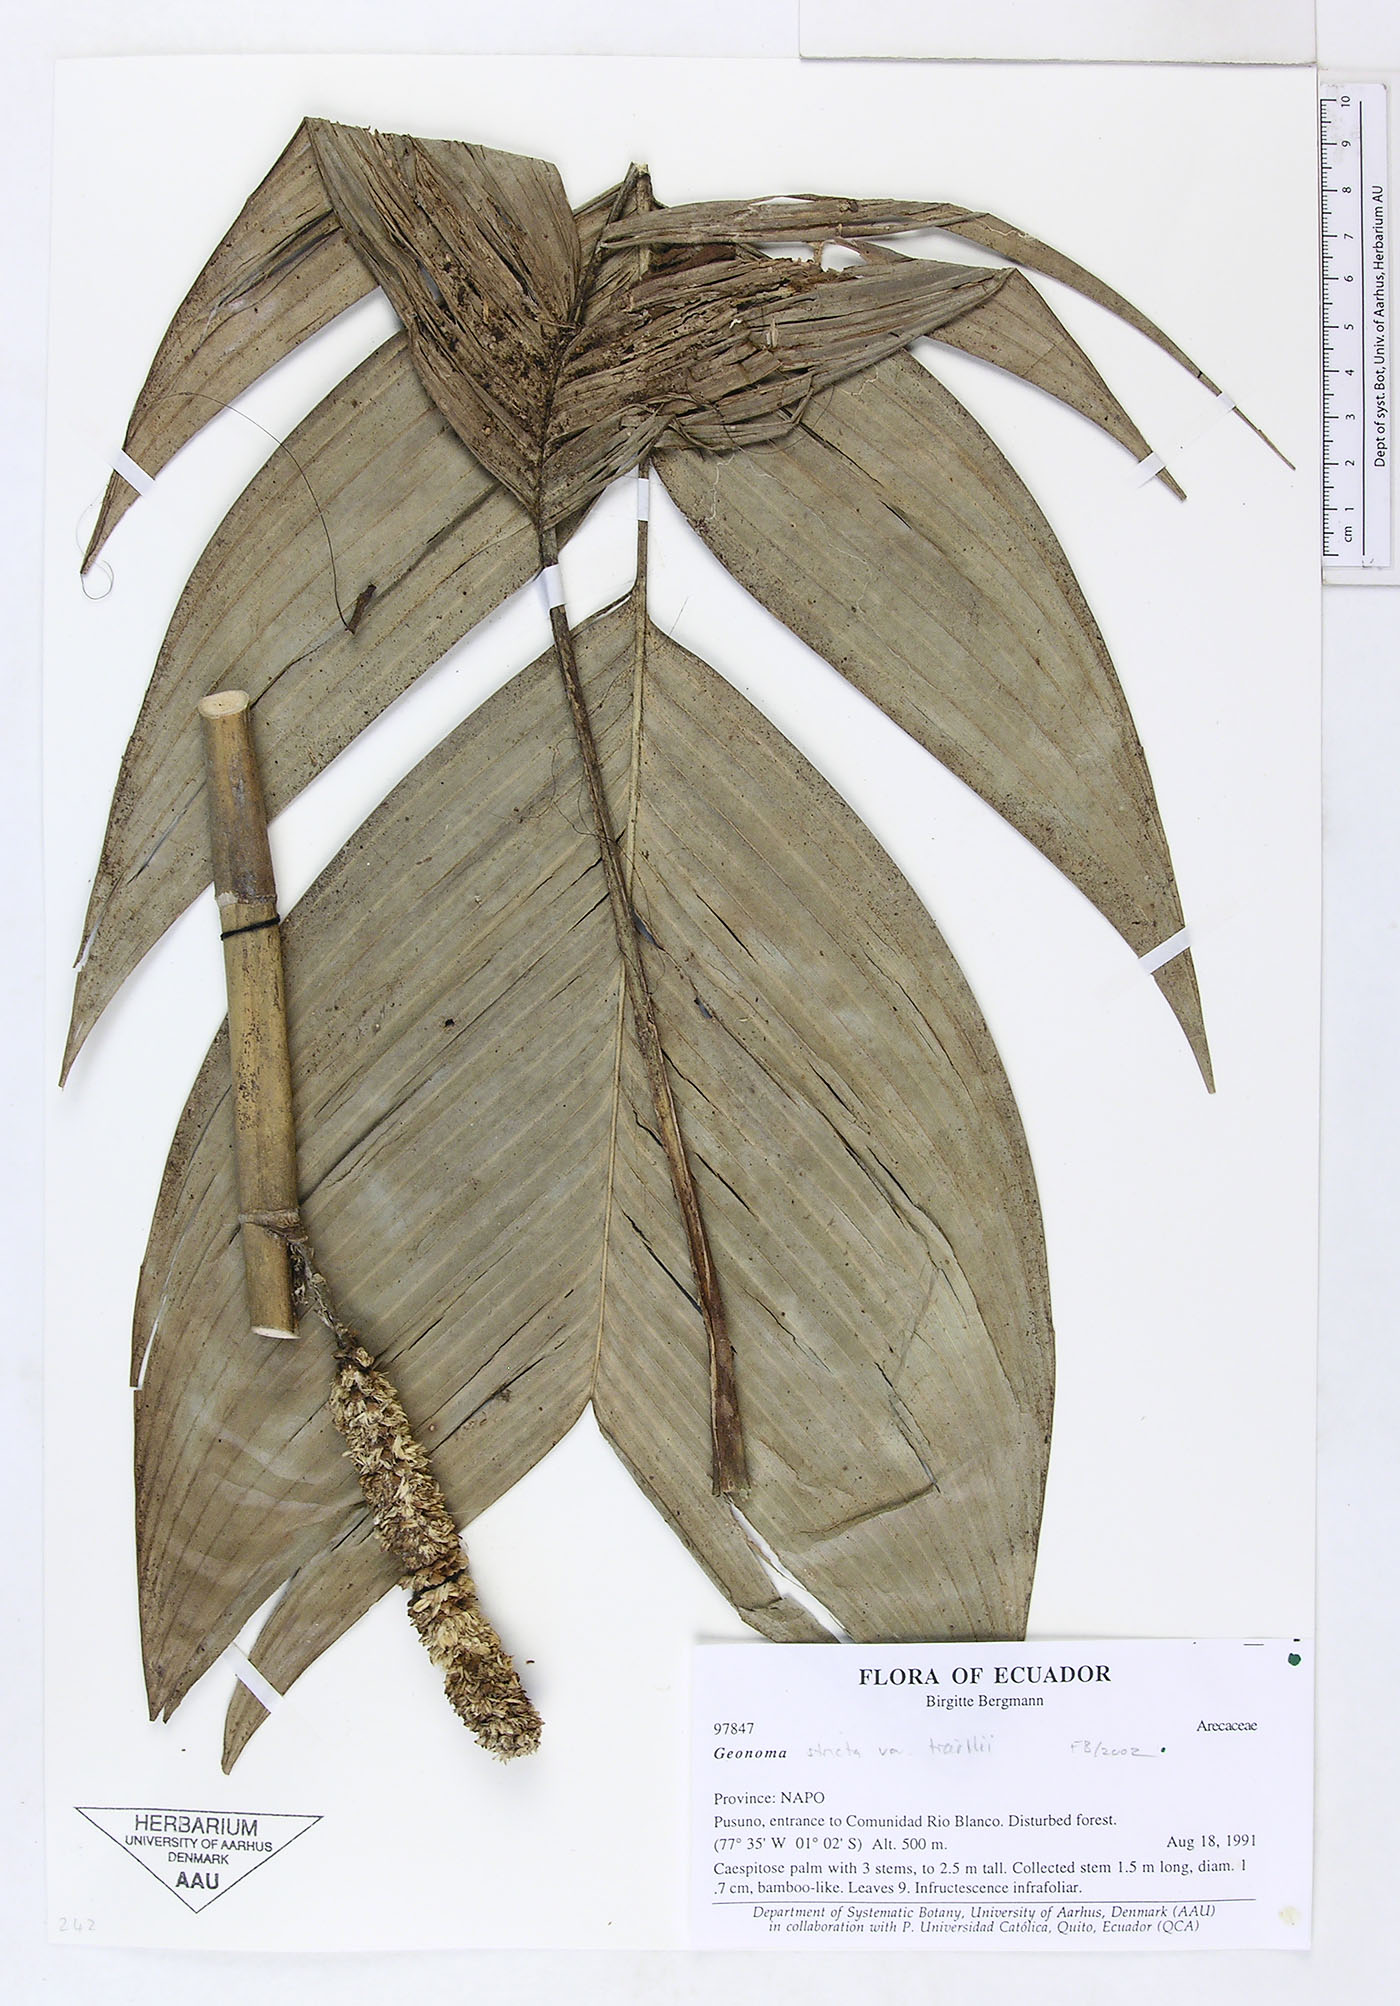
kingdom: Plantae
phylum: Tracheophyta
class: Liliopsida
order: Arecales
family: Arecaceae
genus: Geonoma
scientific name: Geonoma stricta
